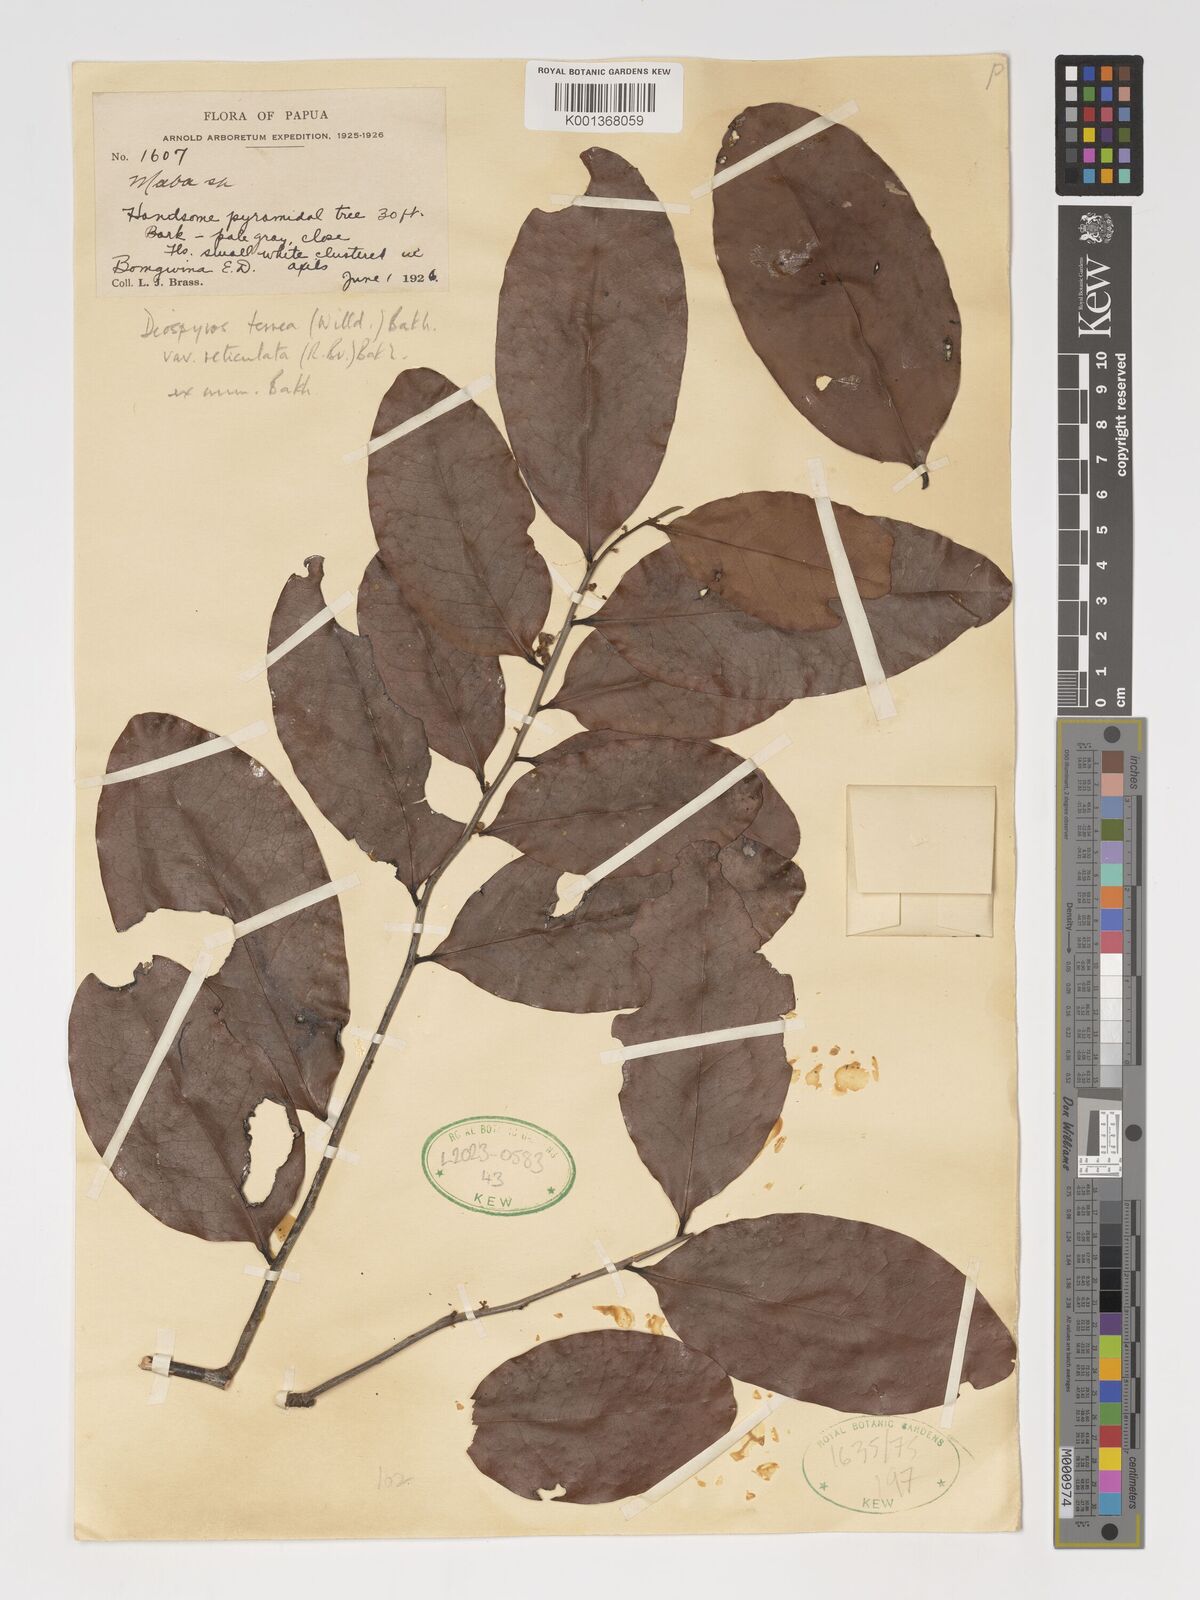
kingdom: Plantae
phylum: Tracheophyta
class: Magnoliopsida
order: Ericales
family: Ebenaceae
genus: Diospyros
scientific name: Diospyros compacta
